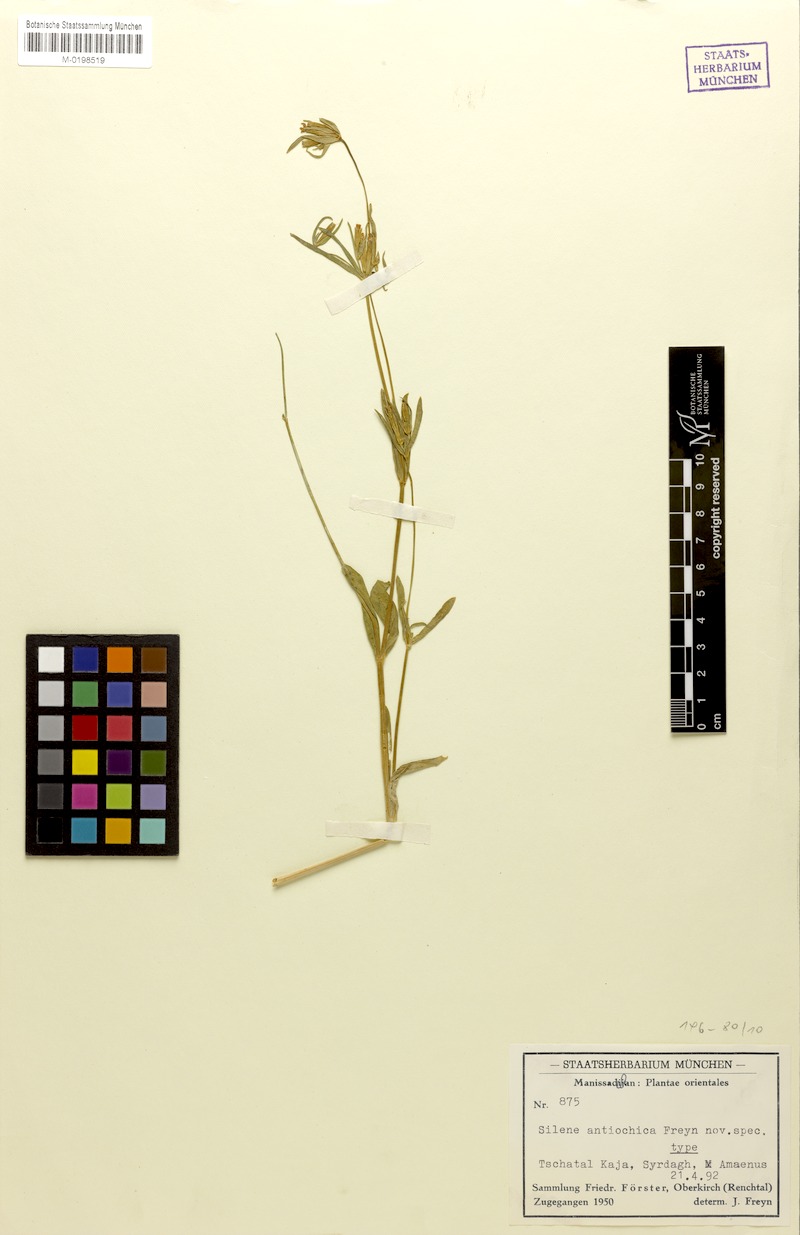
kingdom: Plantae
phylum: Tracheophyta
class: Magnoliopsida
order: Caryophyllales
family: Caryophyllaceae
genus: Silene
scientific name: Silene antiochica
